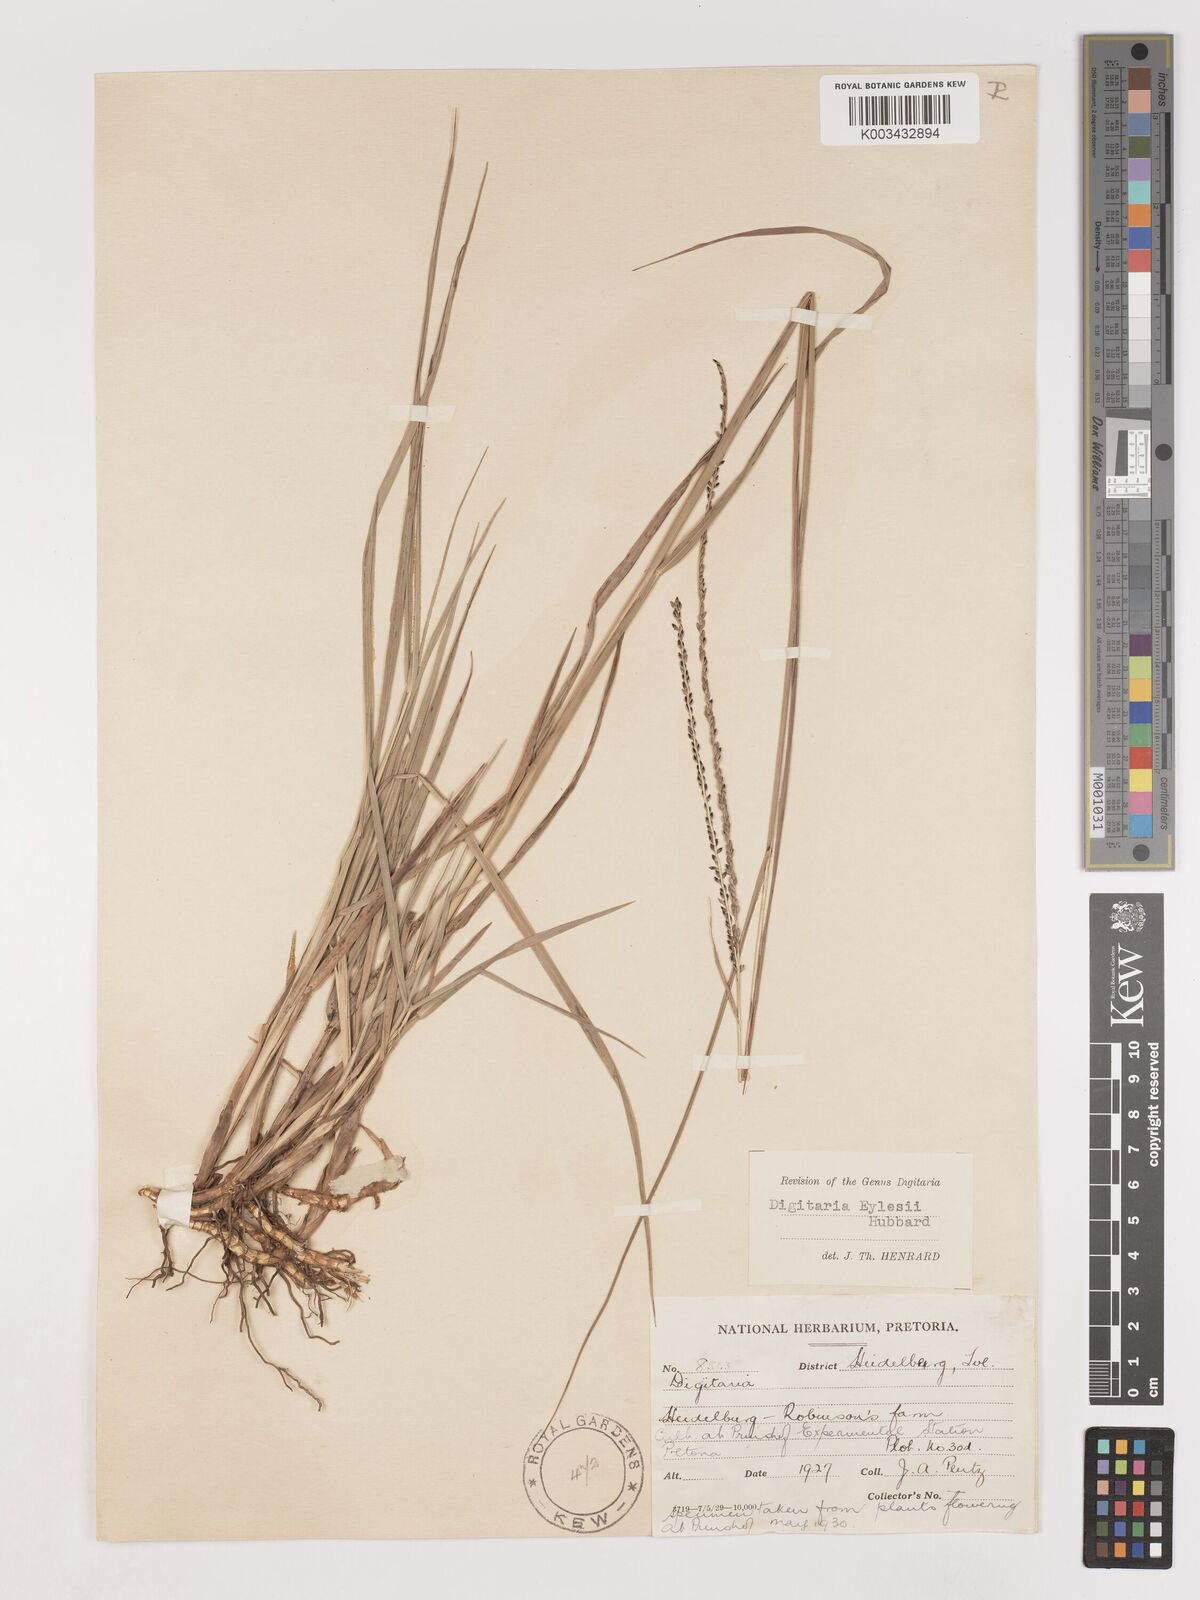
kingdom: Plantae
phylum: Tracheophyta
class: Liliopsida
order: Poales
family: Poaceae
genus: Digitaria
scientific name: Digitaria eylesii
